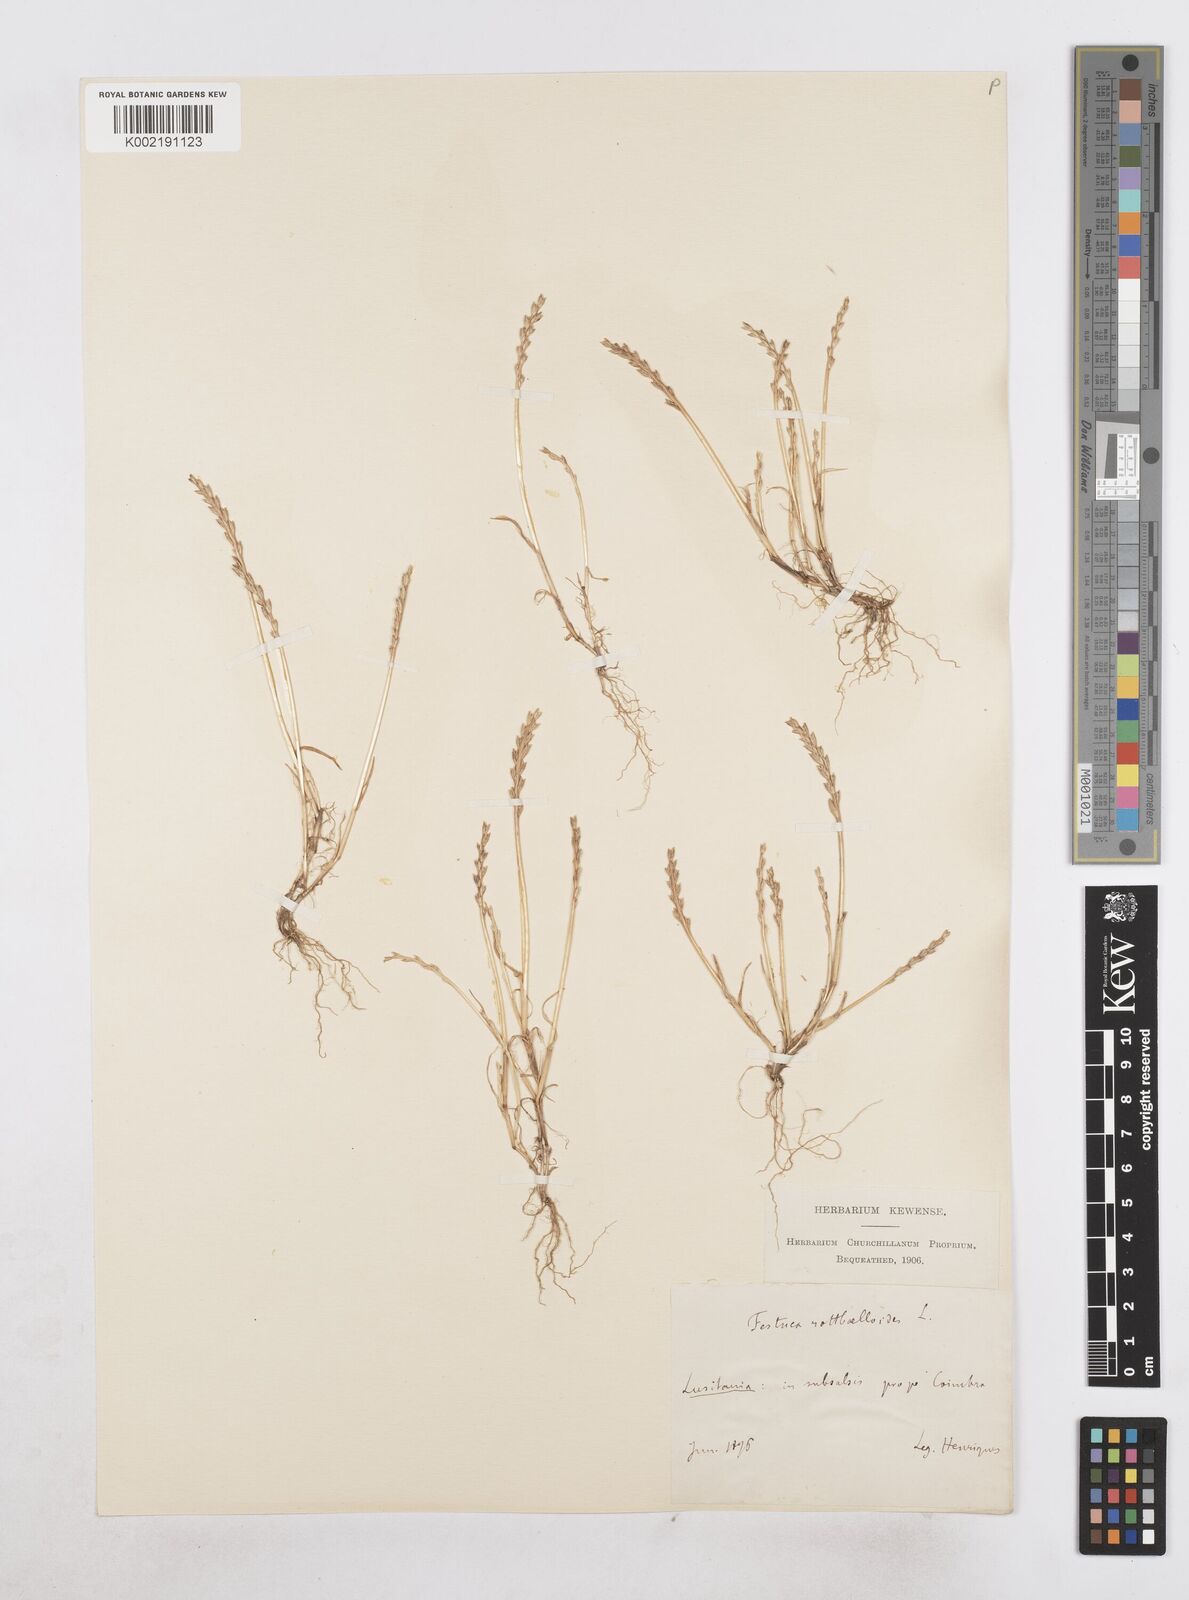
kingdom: Plantae
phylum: Tracheophyta
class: Liliopsida
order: Poales
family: Poaceae
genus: Catapodium
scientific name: Catapodium marinum
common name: Sea fern-grass
